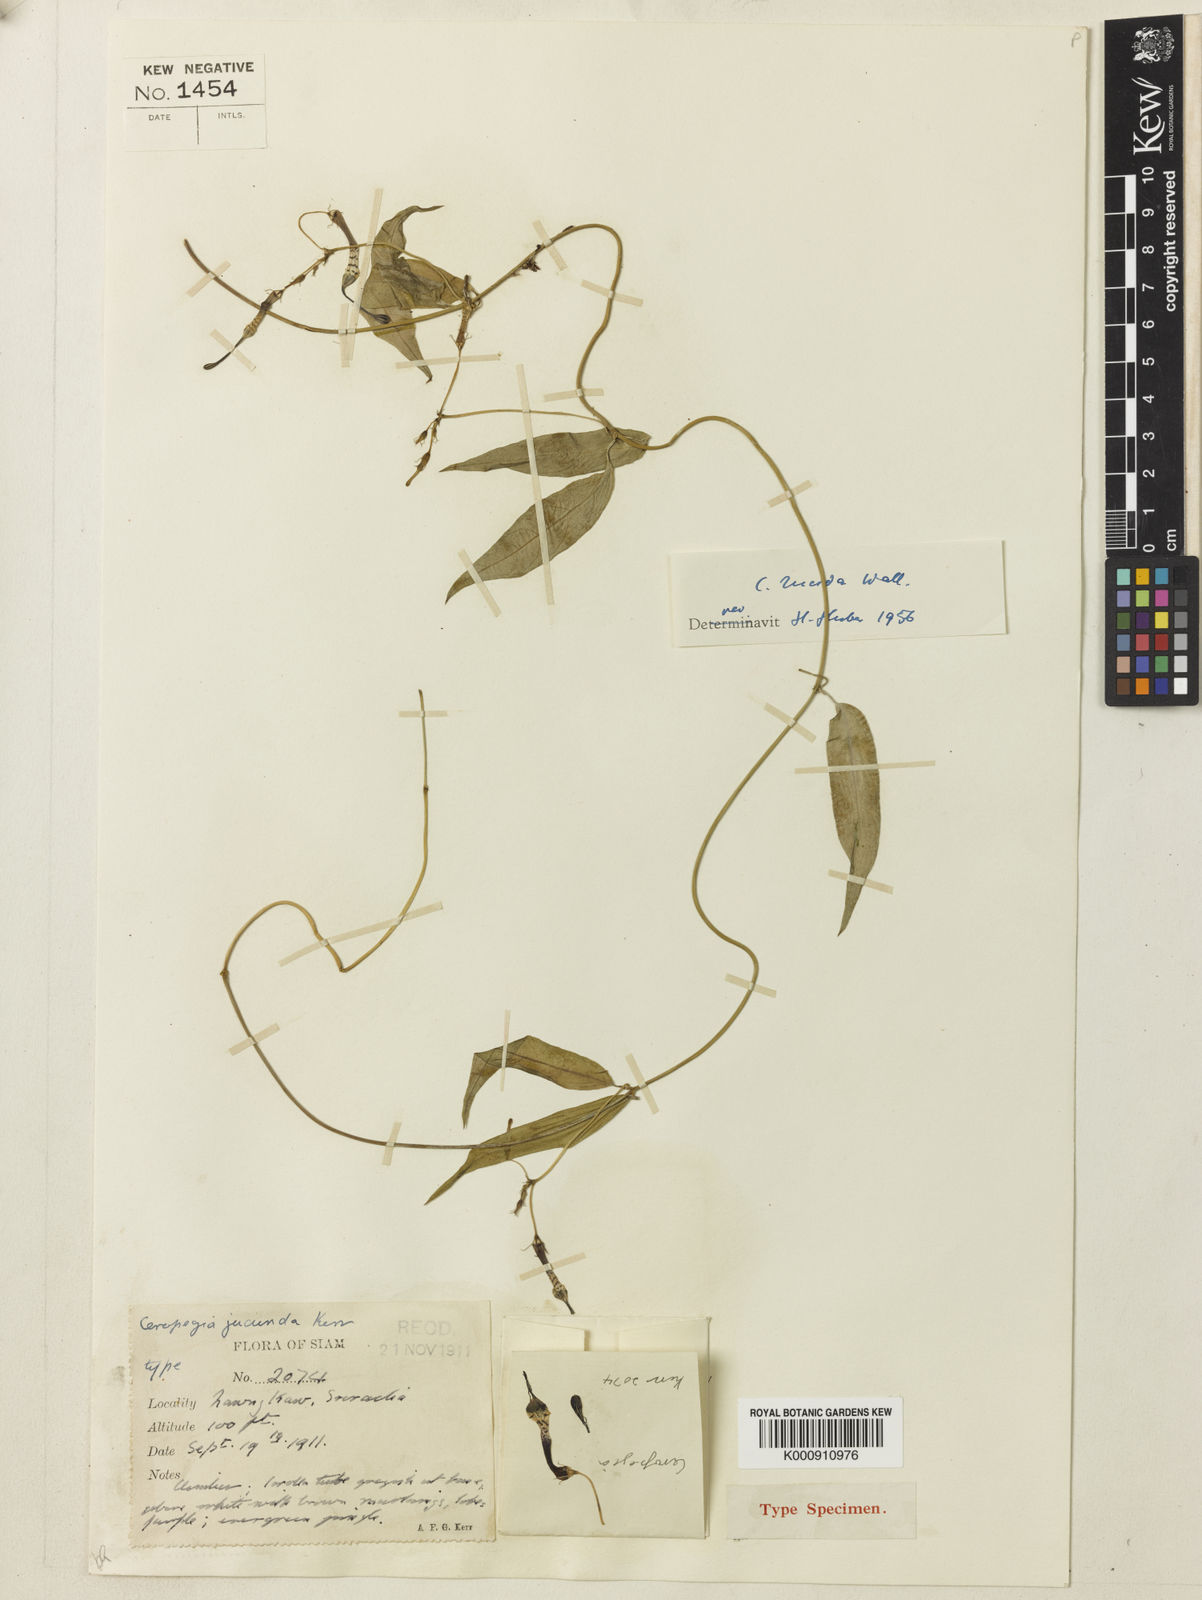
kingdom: Plantae
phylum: Tracheophyta
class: Magnoliopsida
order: Gentianales
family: Apocynaceae
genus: Ceropegia
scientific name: Ceropegia lucida
